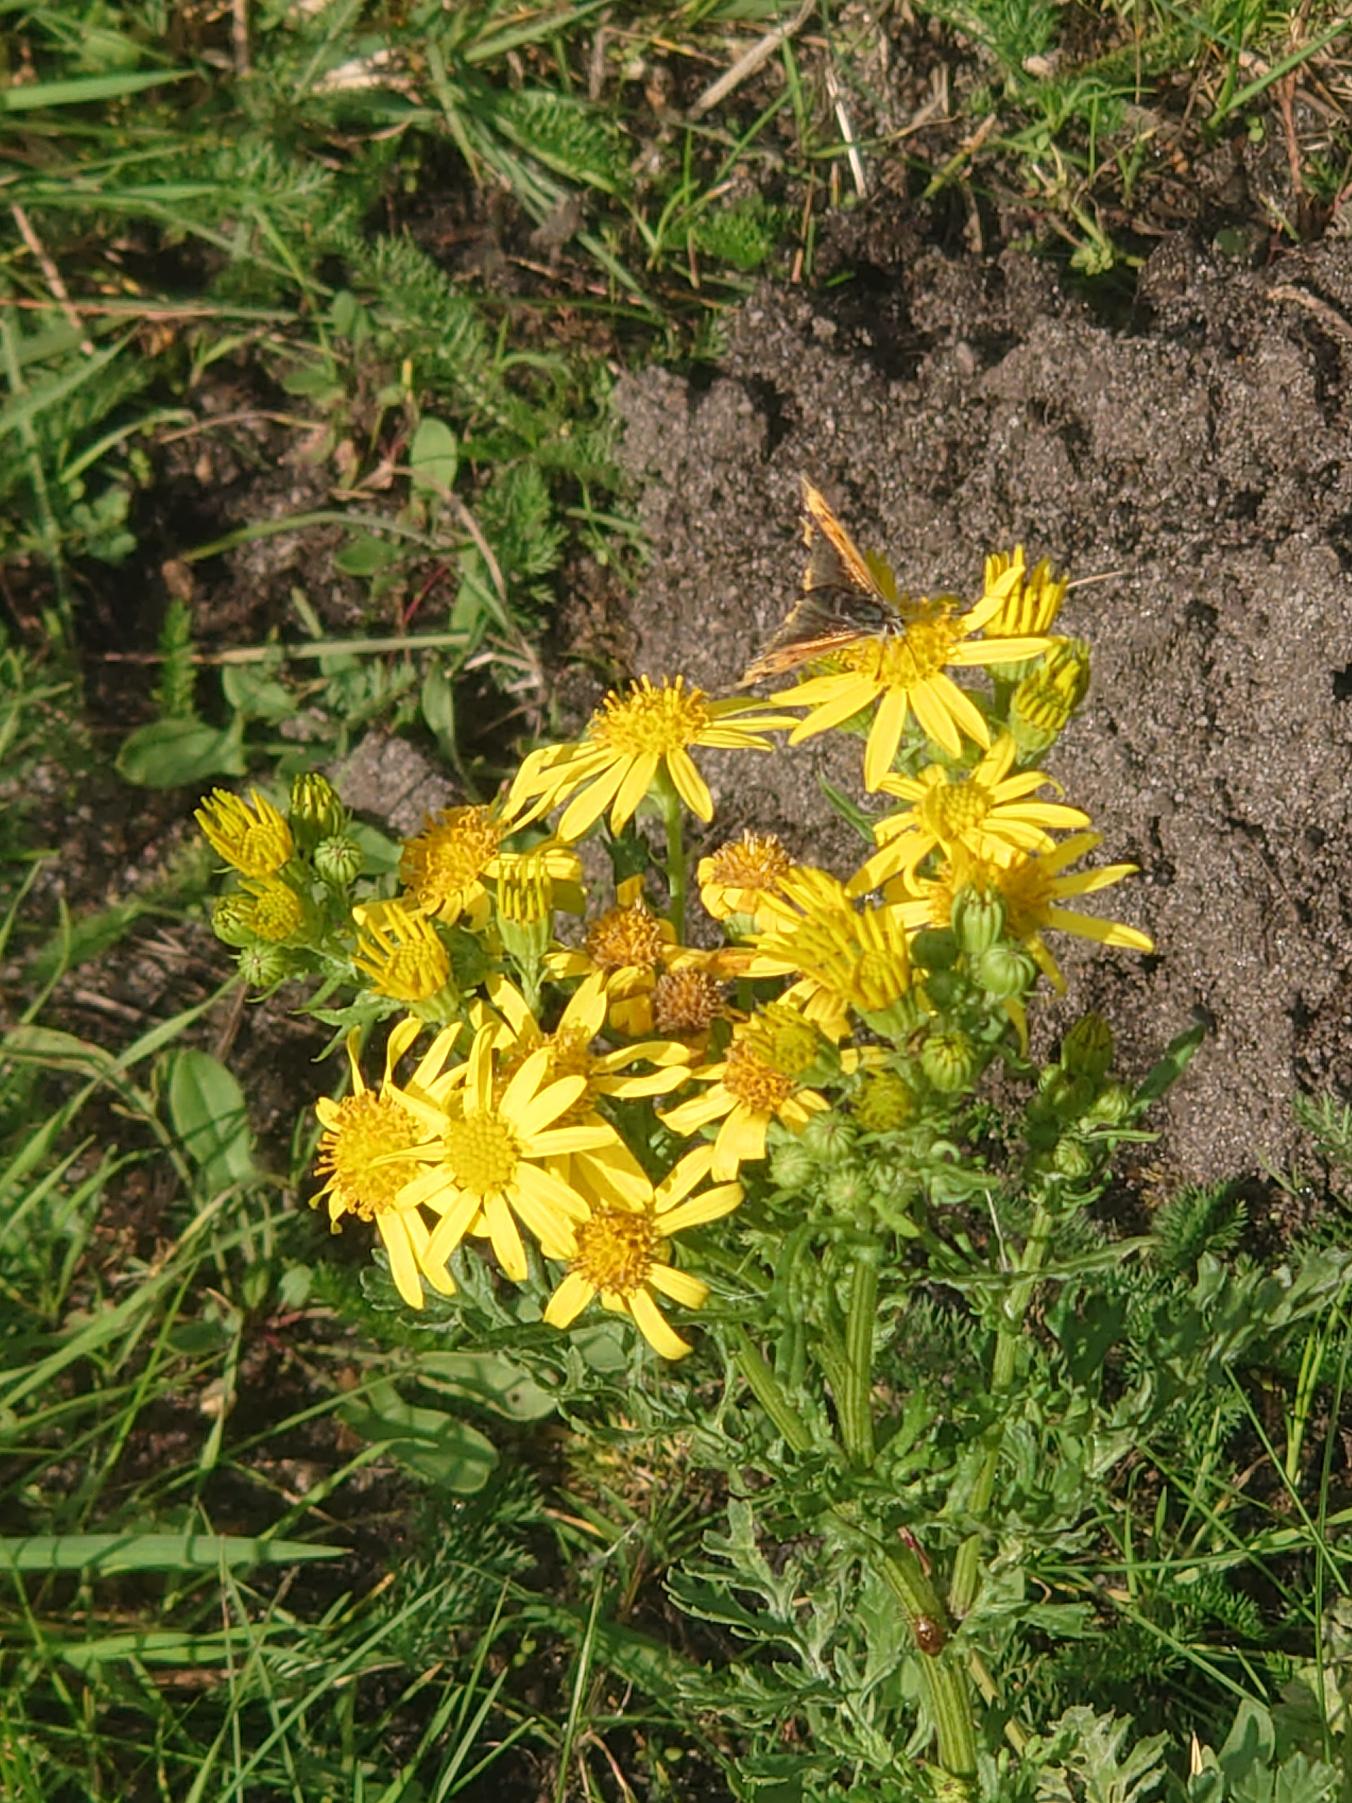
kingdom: Animalia
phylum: Arthropoda
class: Insecta
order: Lepidoptera
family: Lycaenidae
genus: Lycaena
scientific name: Lycaena phlaeas
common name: Lille ildfugl
